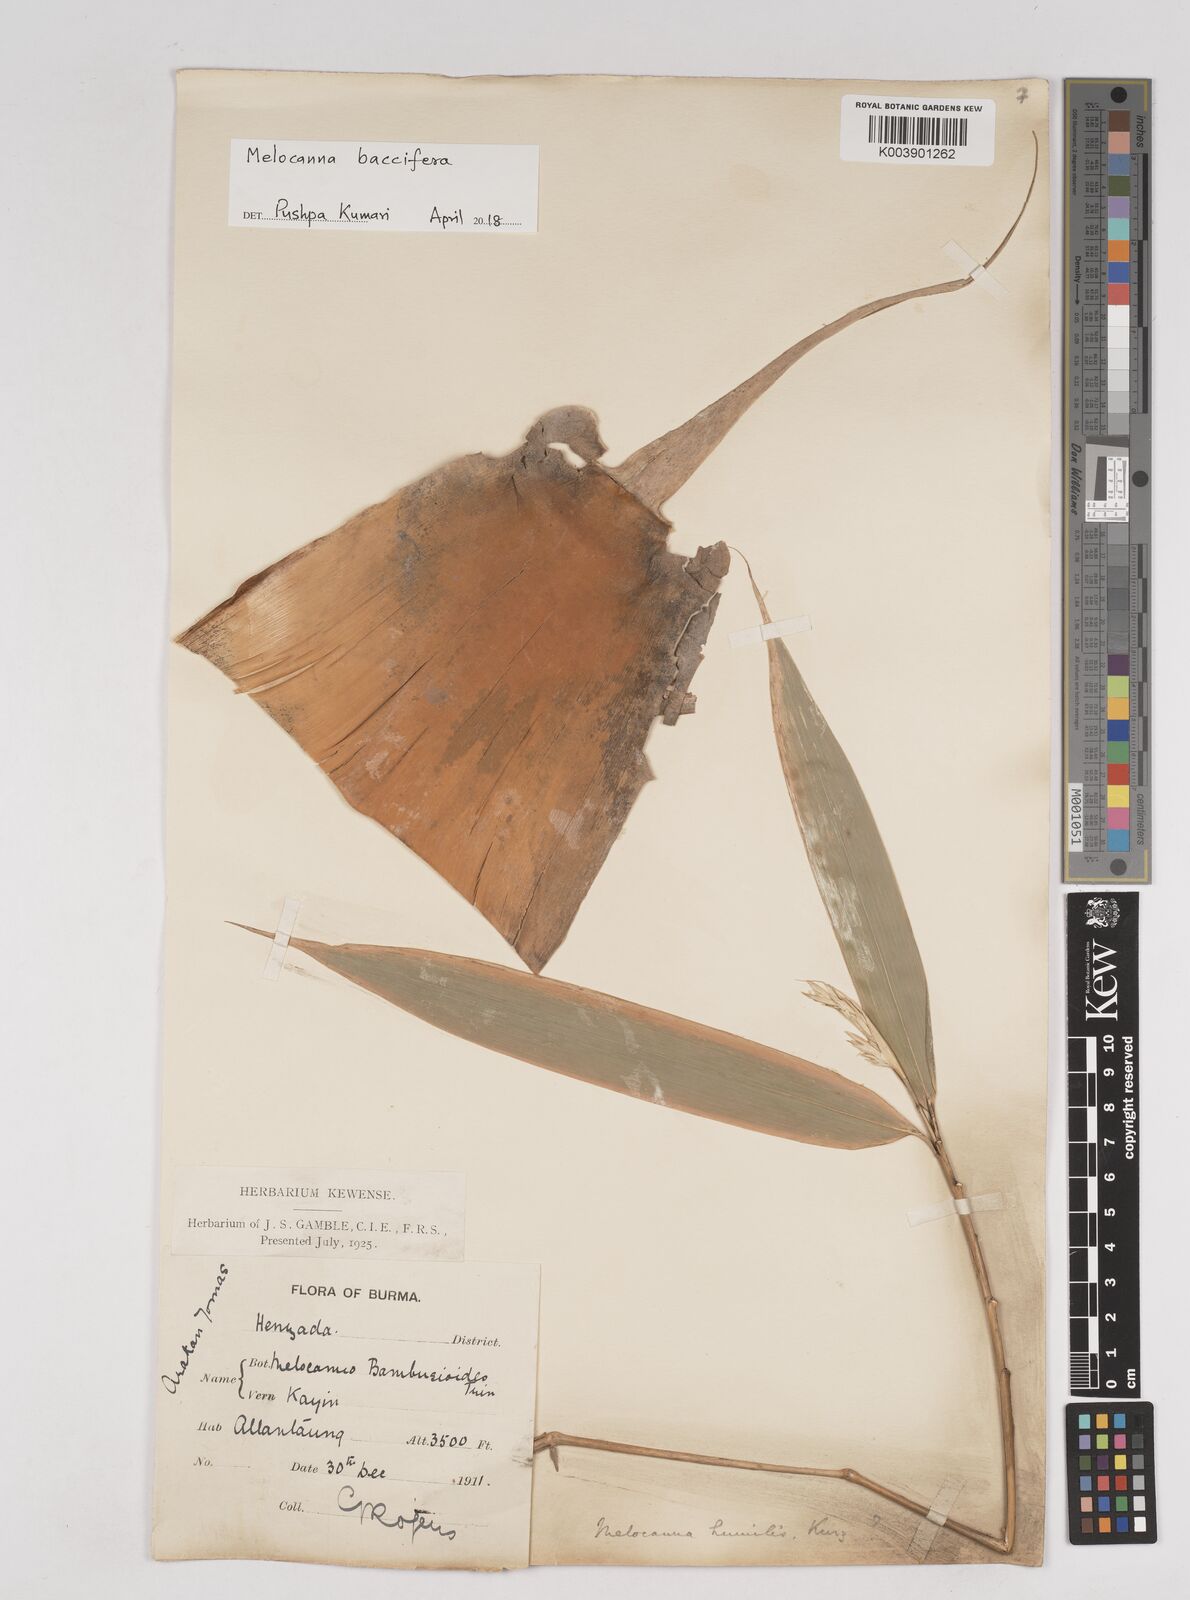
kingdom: Plantae
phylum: Tracheophyta
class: Liliopsida
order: Poales
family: Poaceae
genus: Melocanna
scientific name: Melocanna baccifera
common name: Berry bamboo
